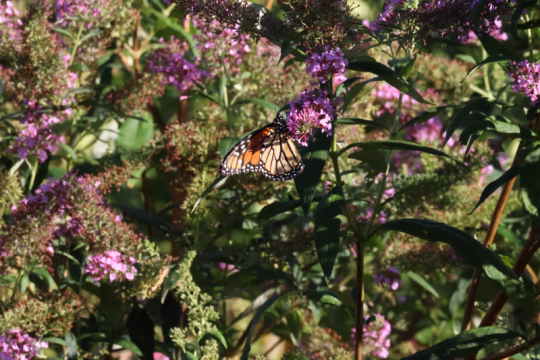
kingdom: Animalia
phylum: Arthropoda
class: Insecta
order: Lepidoptera
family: Nymphalidae
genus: Danaus
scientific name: Danaus plexippus
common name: Monarch
